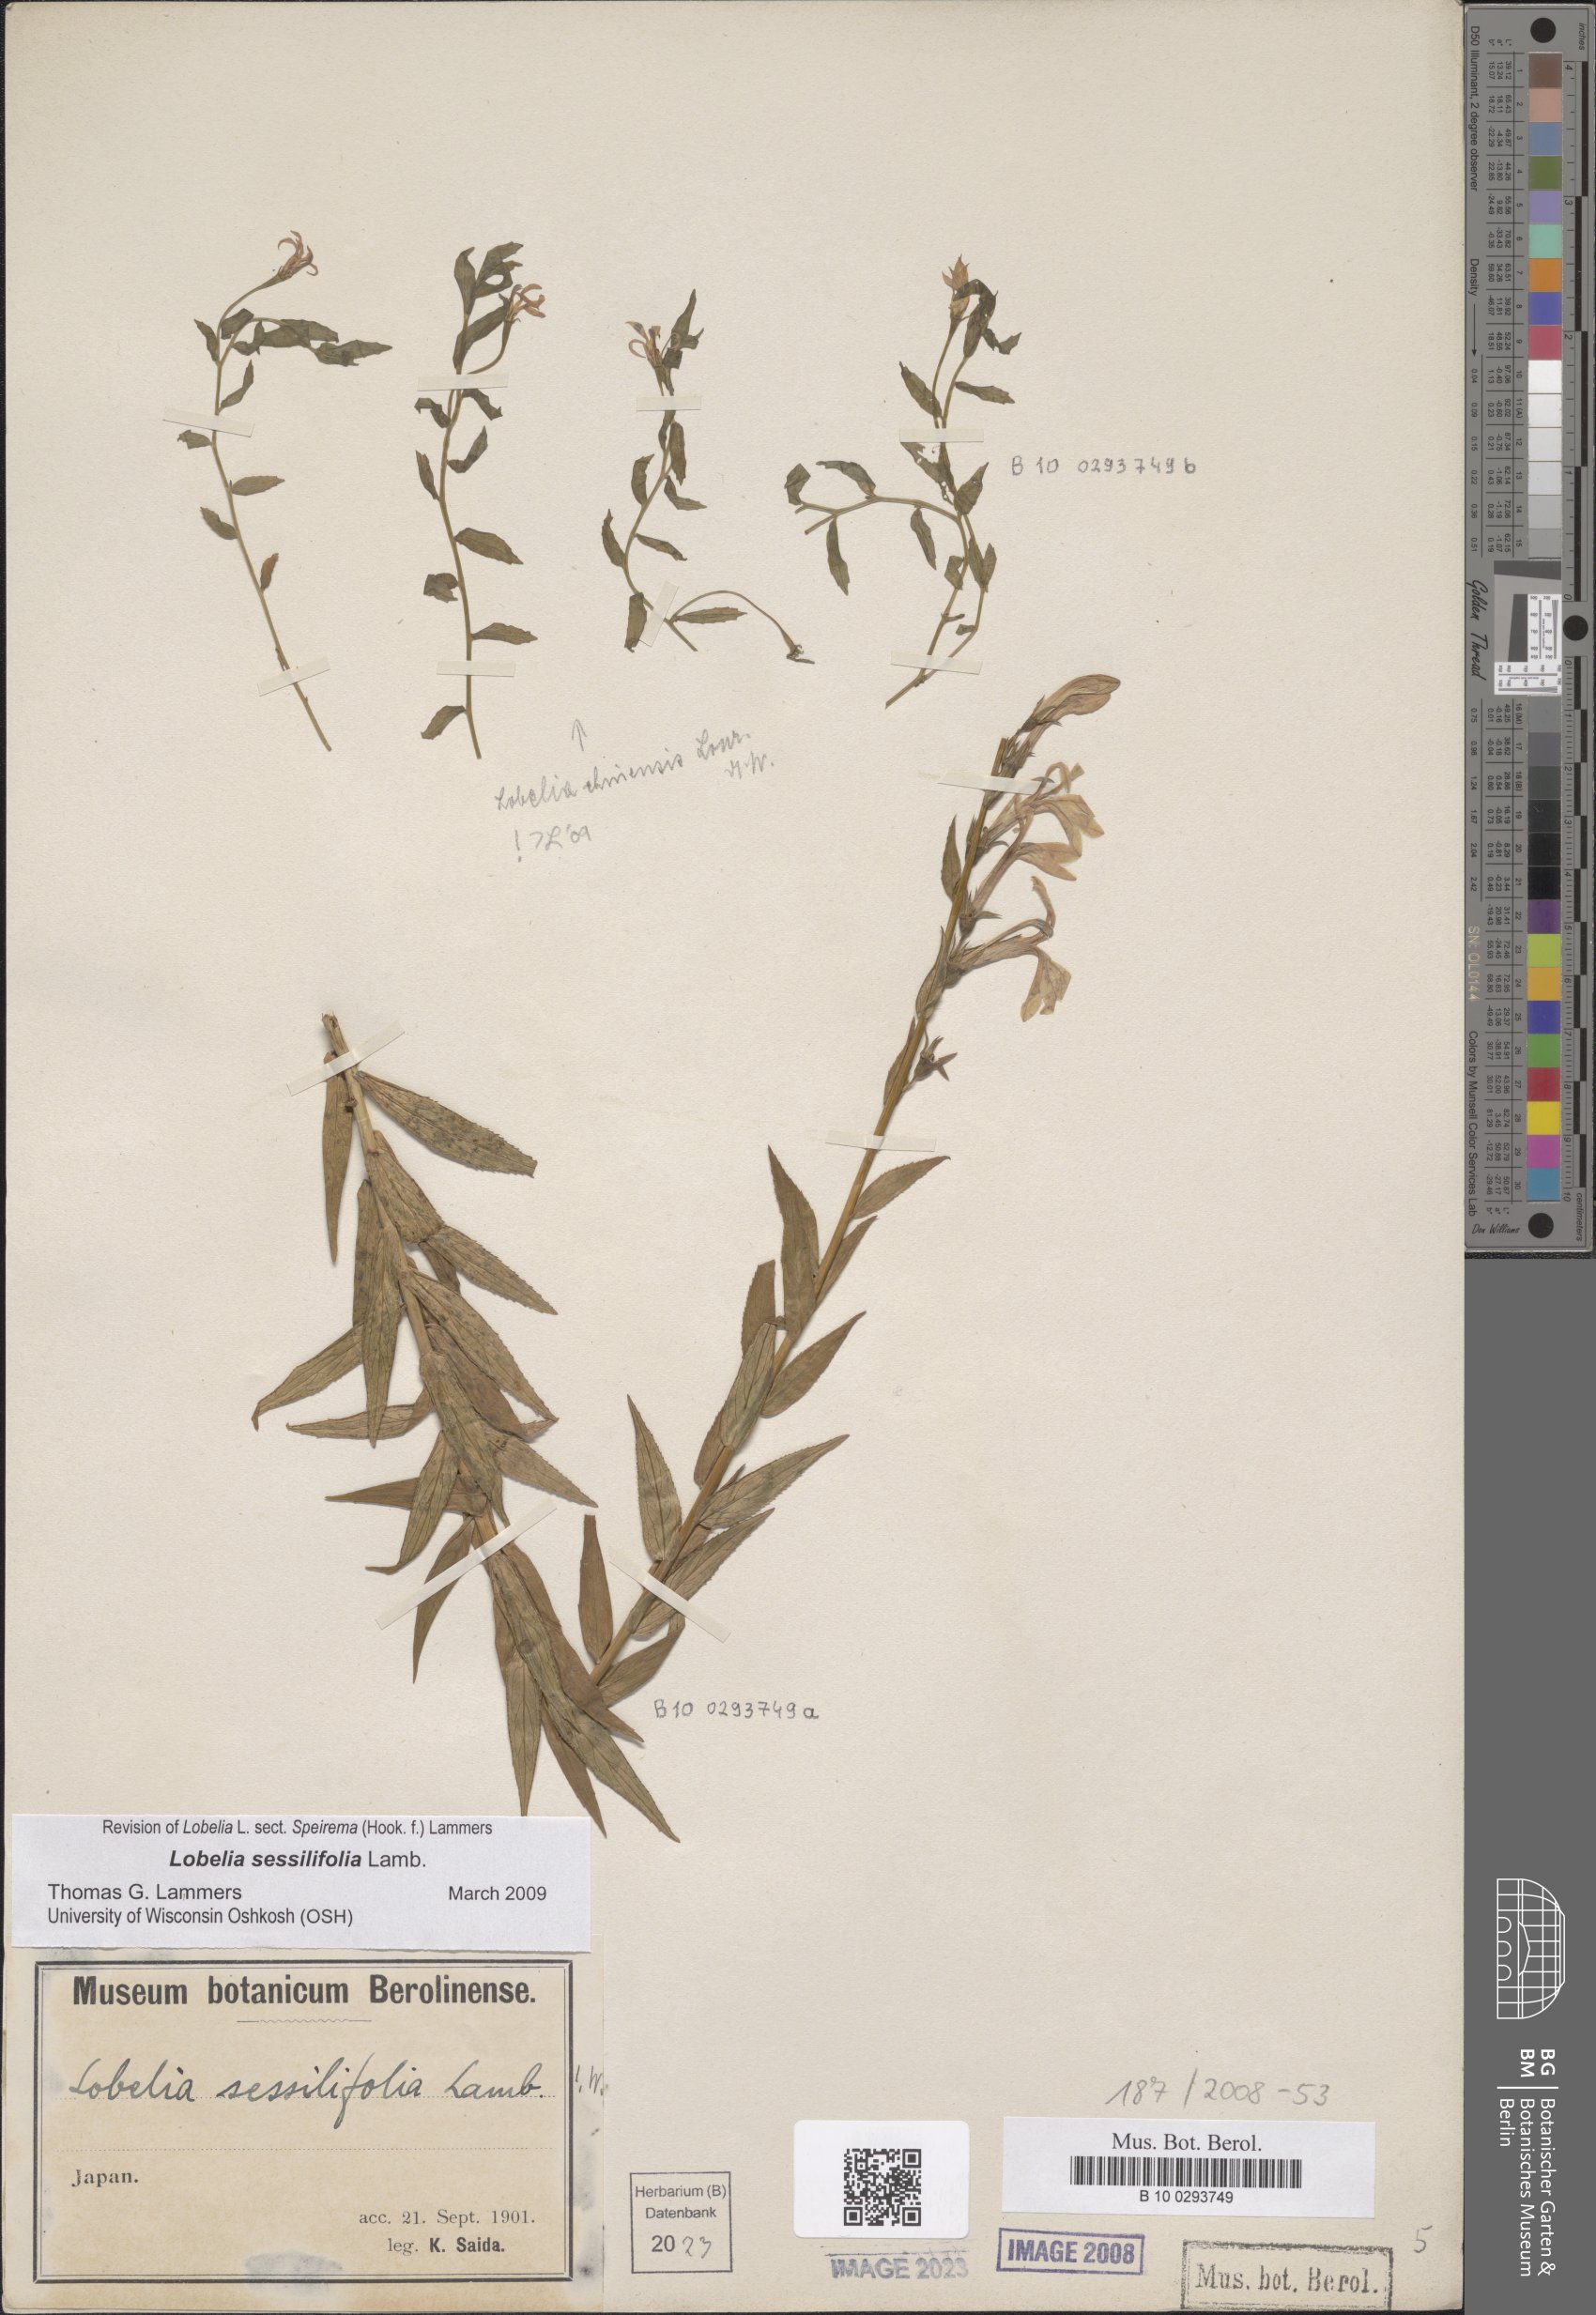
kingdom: Plantae
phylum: Tracheophyta
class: Magnoliopsida
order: Asterales
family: Campanulaceae
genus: Lobelia
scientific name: Lobelia chinensis
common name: Chinese lobelia
